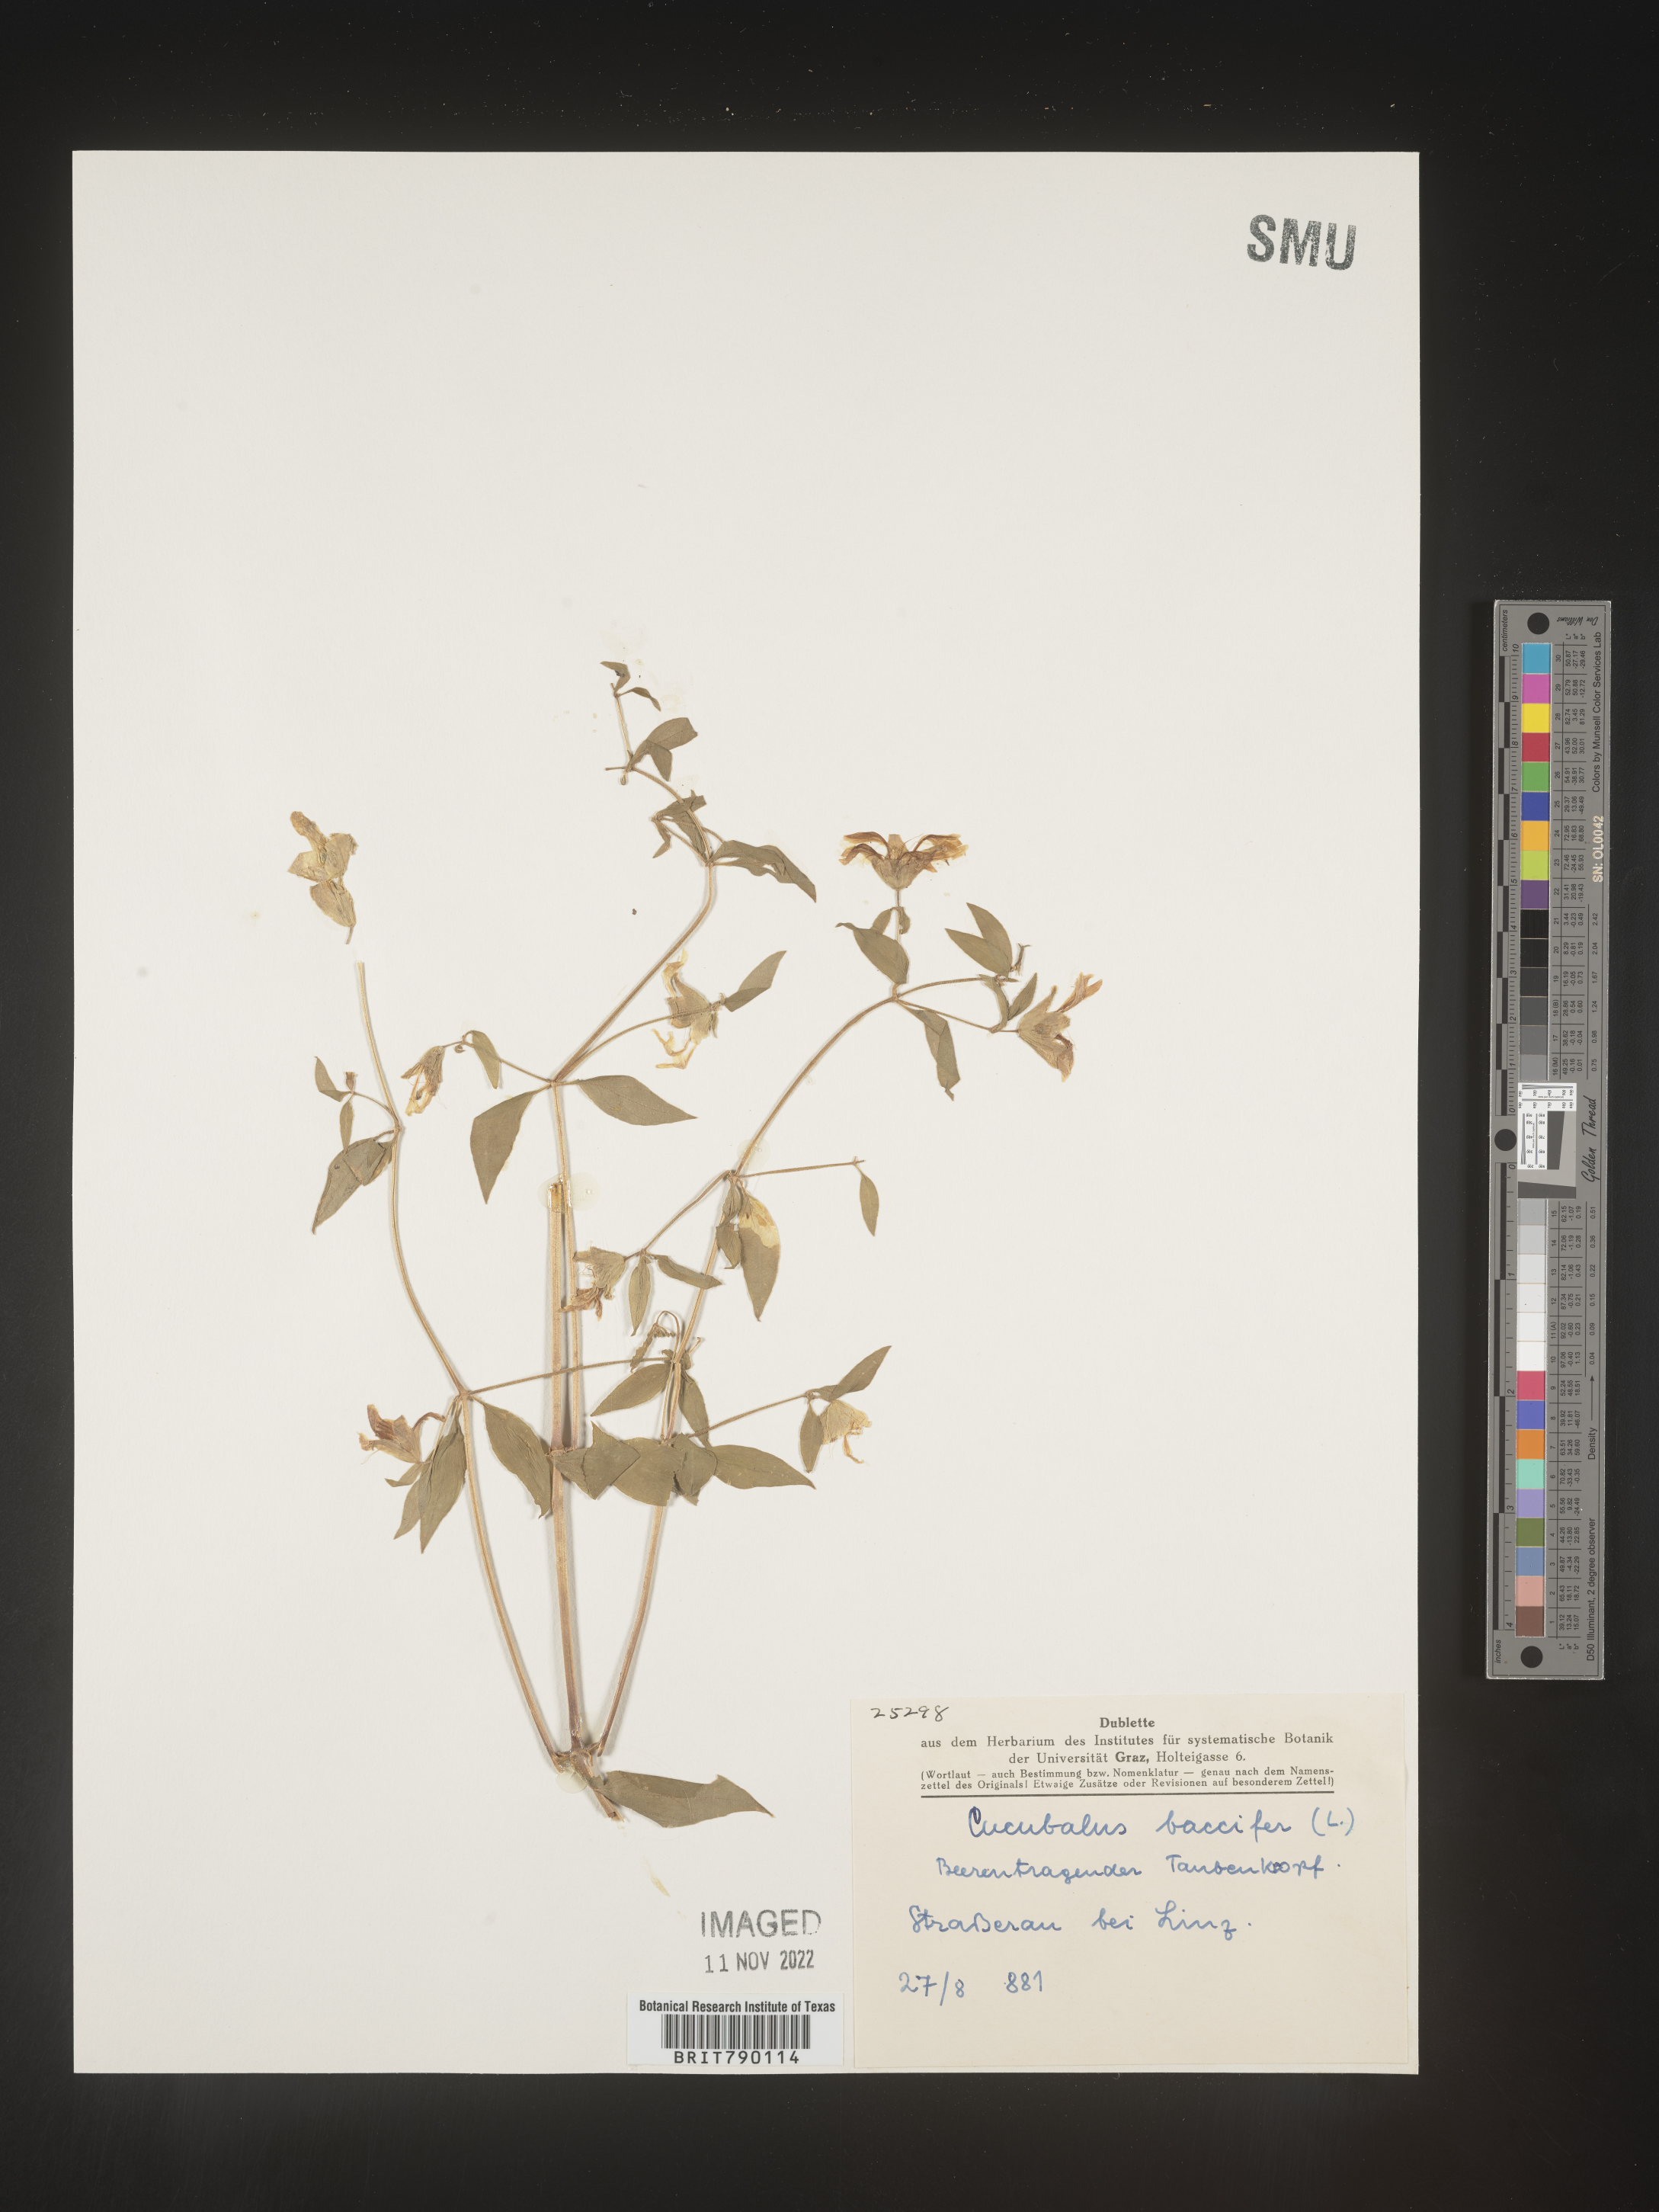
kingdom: Animalia
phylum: Cnidaria
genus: Cucubalus
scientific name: Cucubalus
